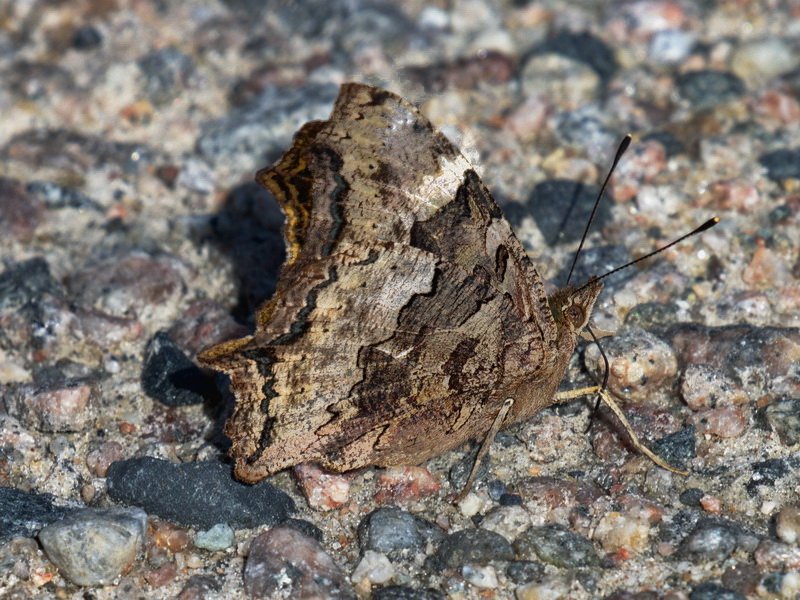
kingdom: Animalia
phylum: Arthropoda
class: Insecta
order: Lepidoptera
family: Nymphalidae
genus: Polygonia
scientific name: Polygonia vaualbum
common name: Compton Tortoiseshell
